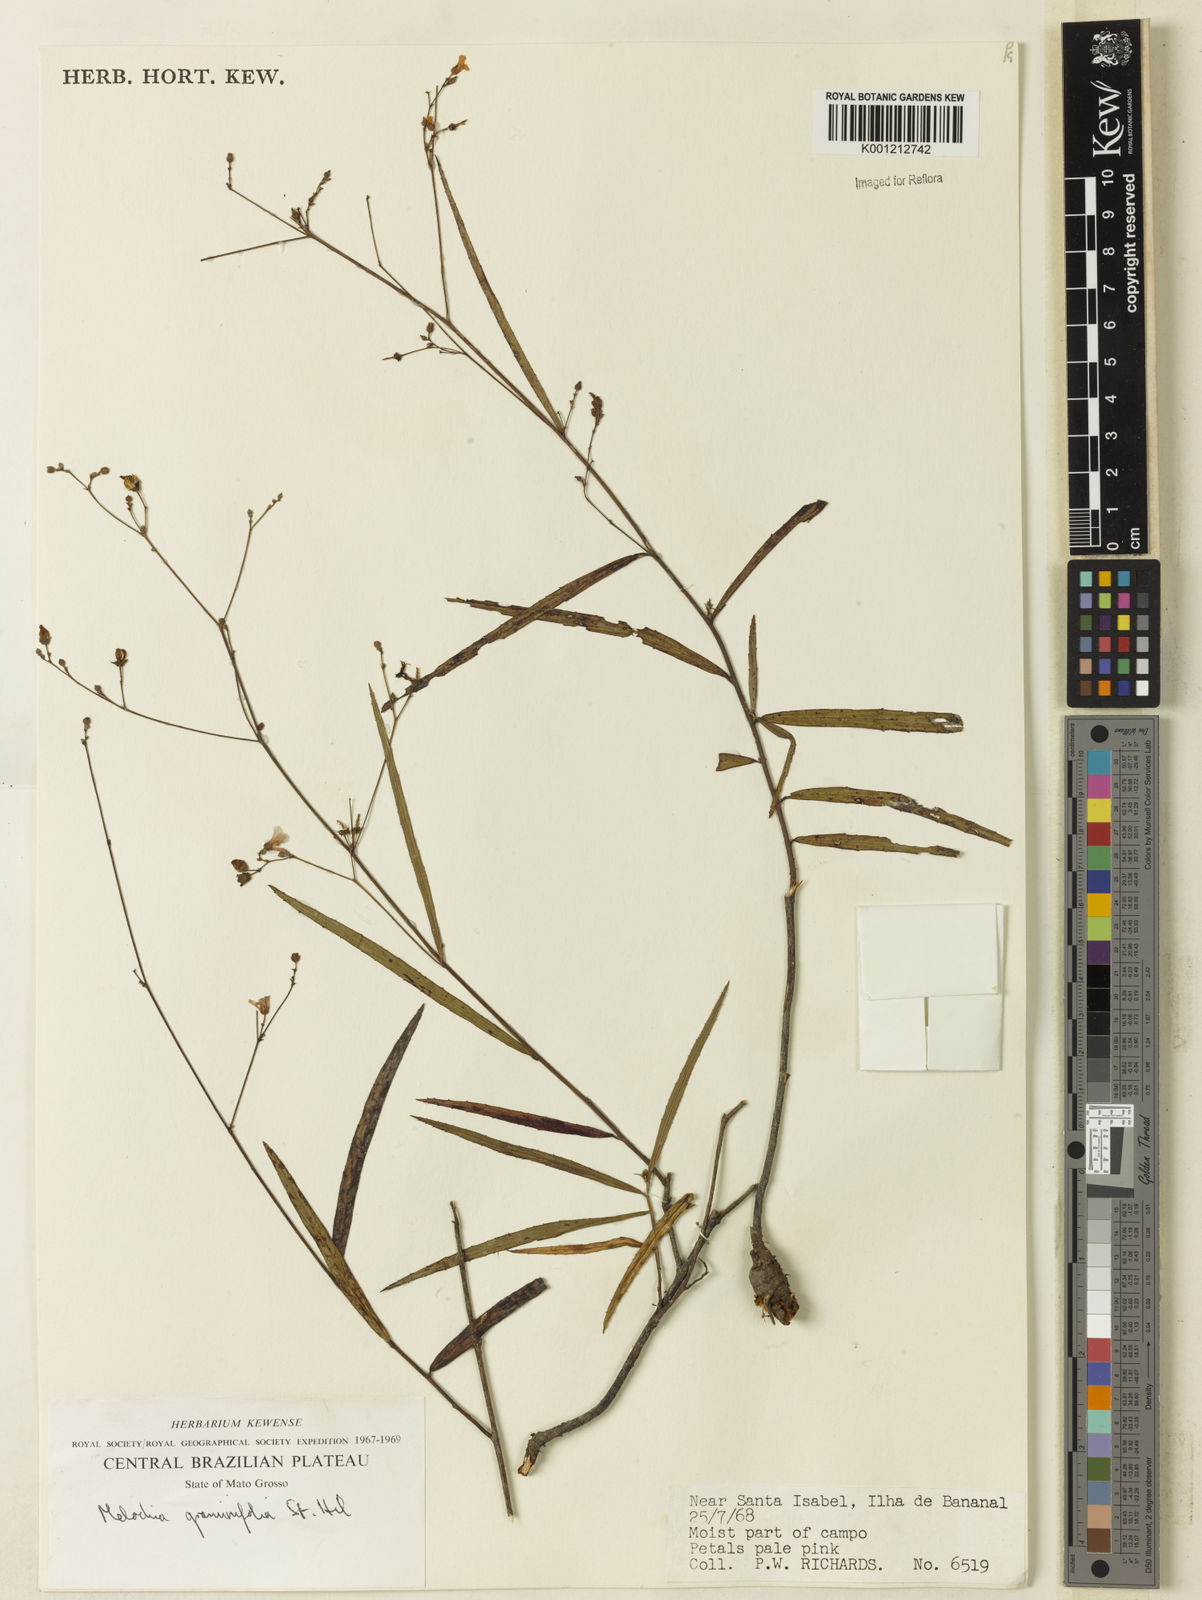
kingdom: Plantae
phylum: Tracheophyta
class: Magnoliopsida
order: Malvales
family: Malvaceae
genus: Melochia
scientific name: Melochia graminifolia
